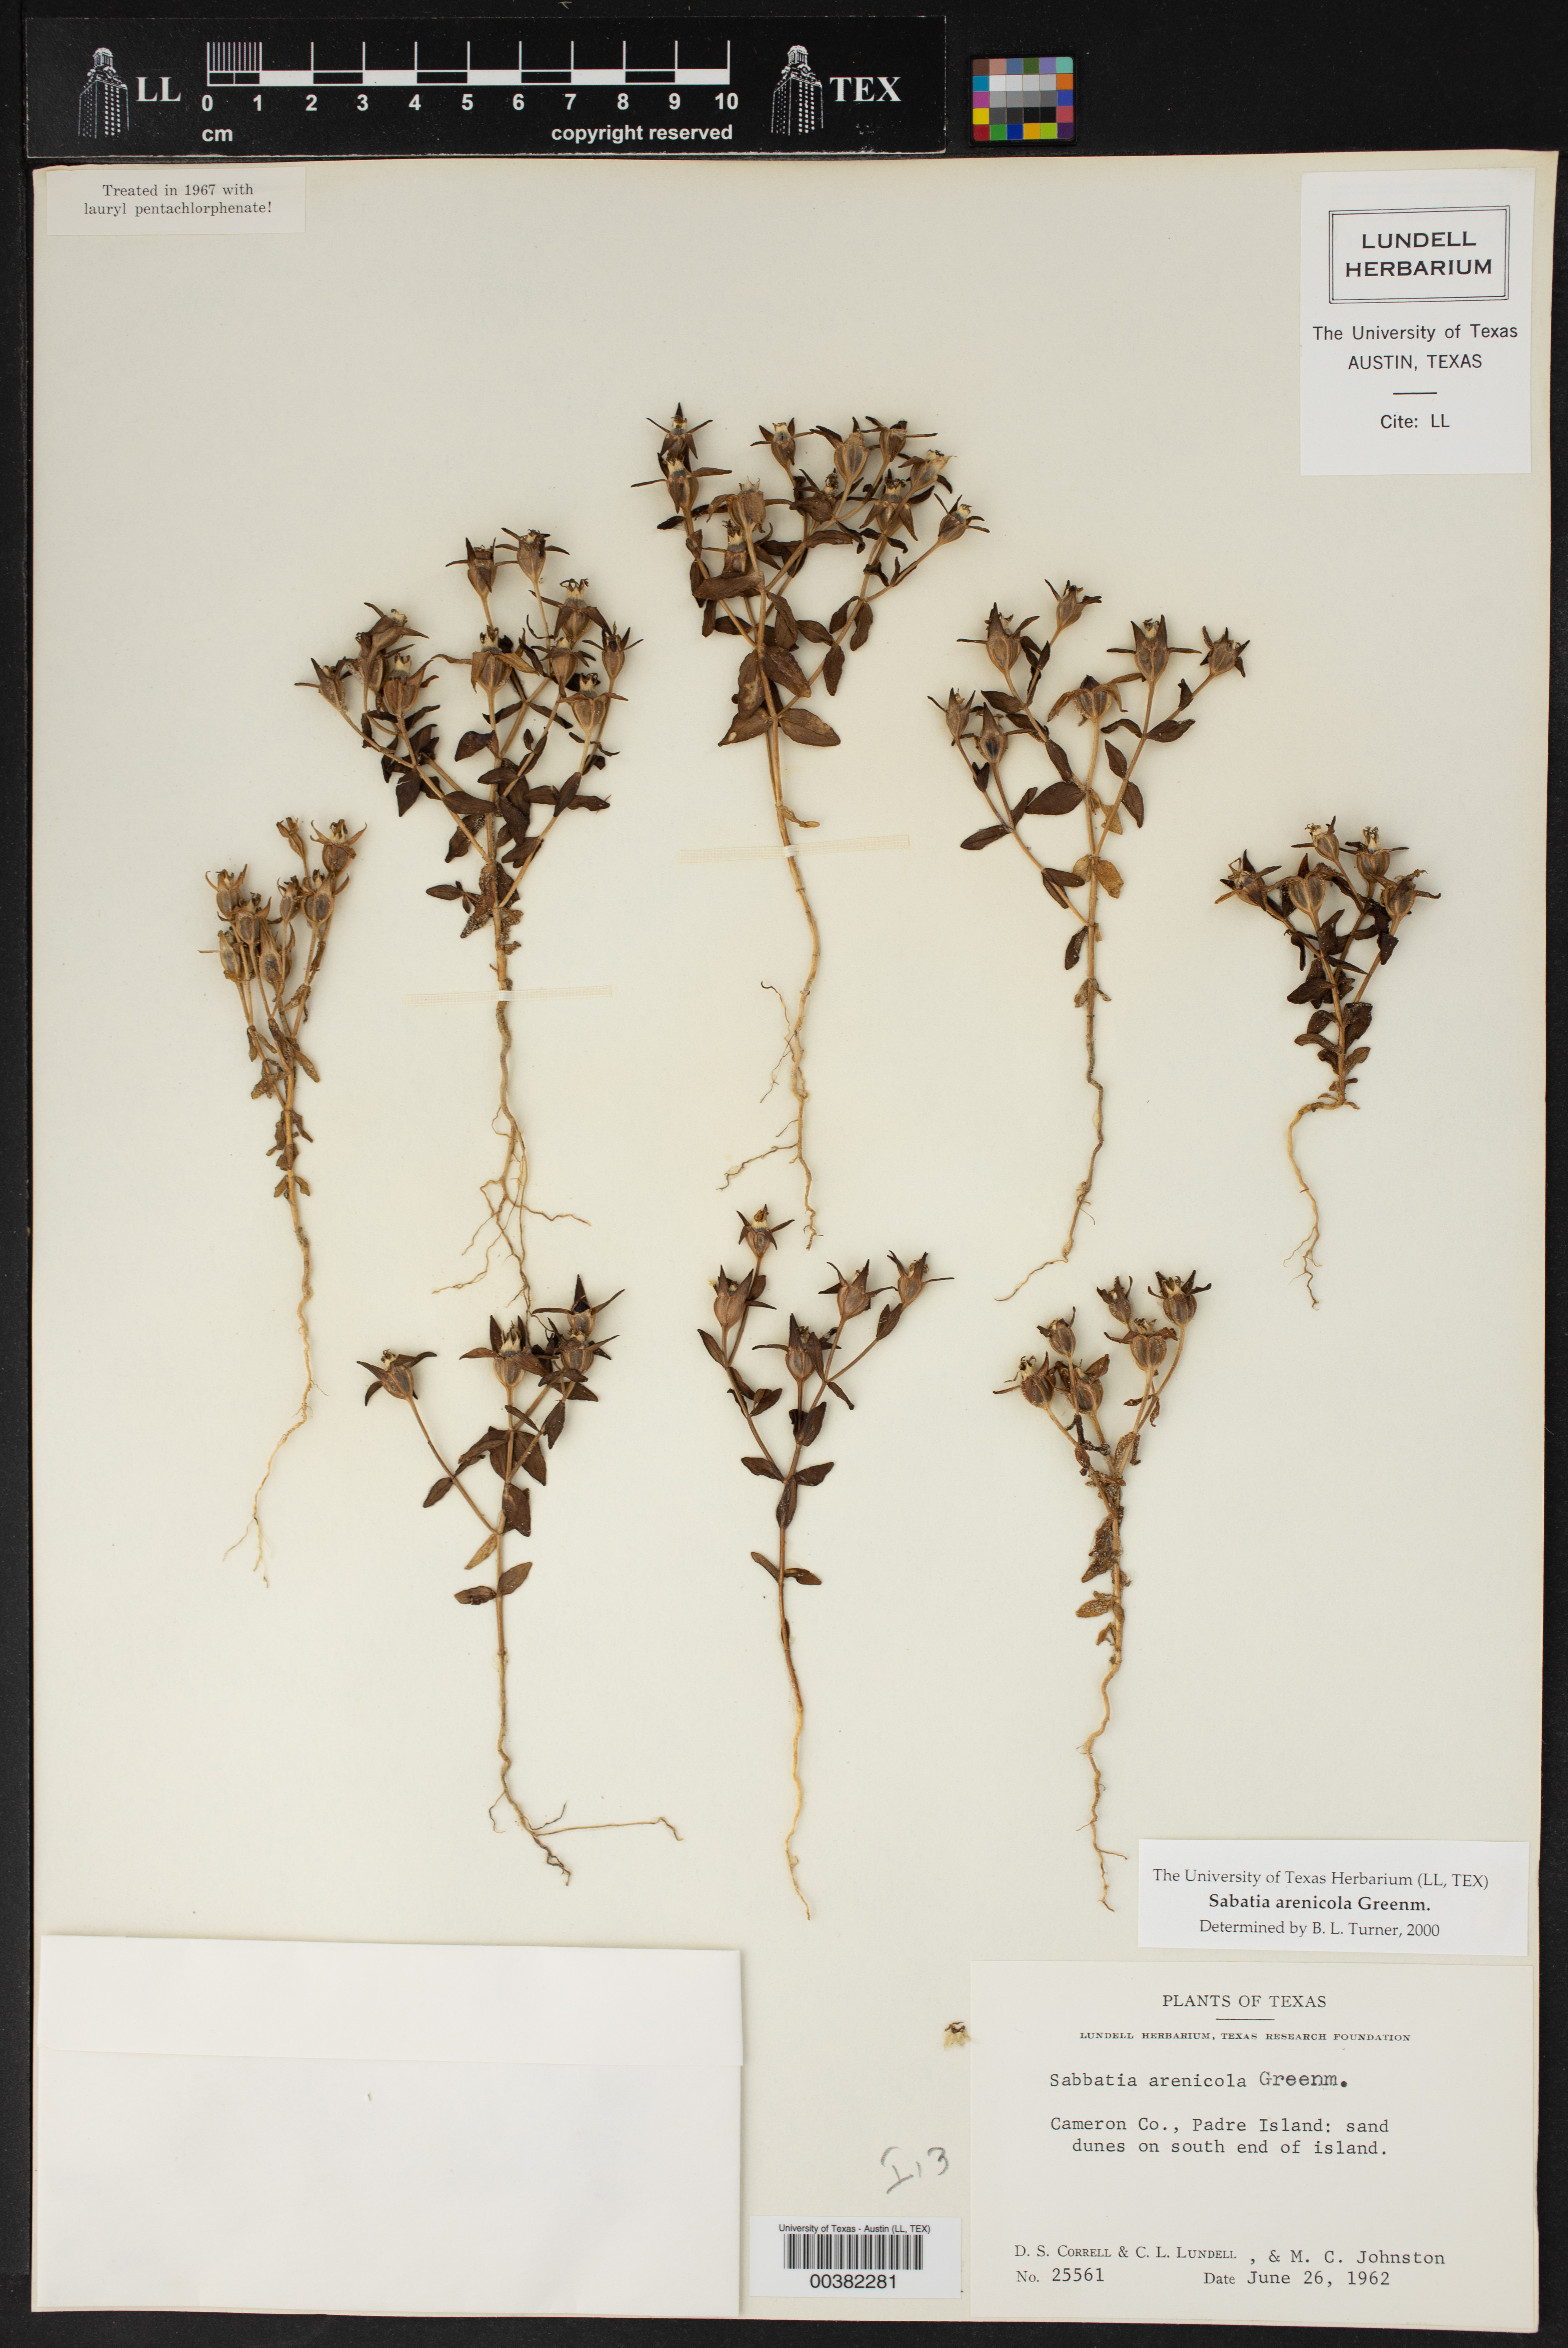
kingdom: Plantae
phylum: Tracheophyta
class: Magnoliopsida
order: Gentianales
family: Gentianaceae
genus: Sabatia
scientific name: Sabatia arenicola
